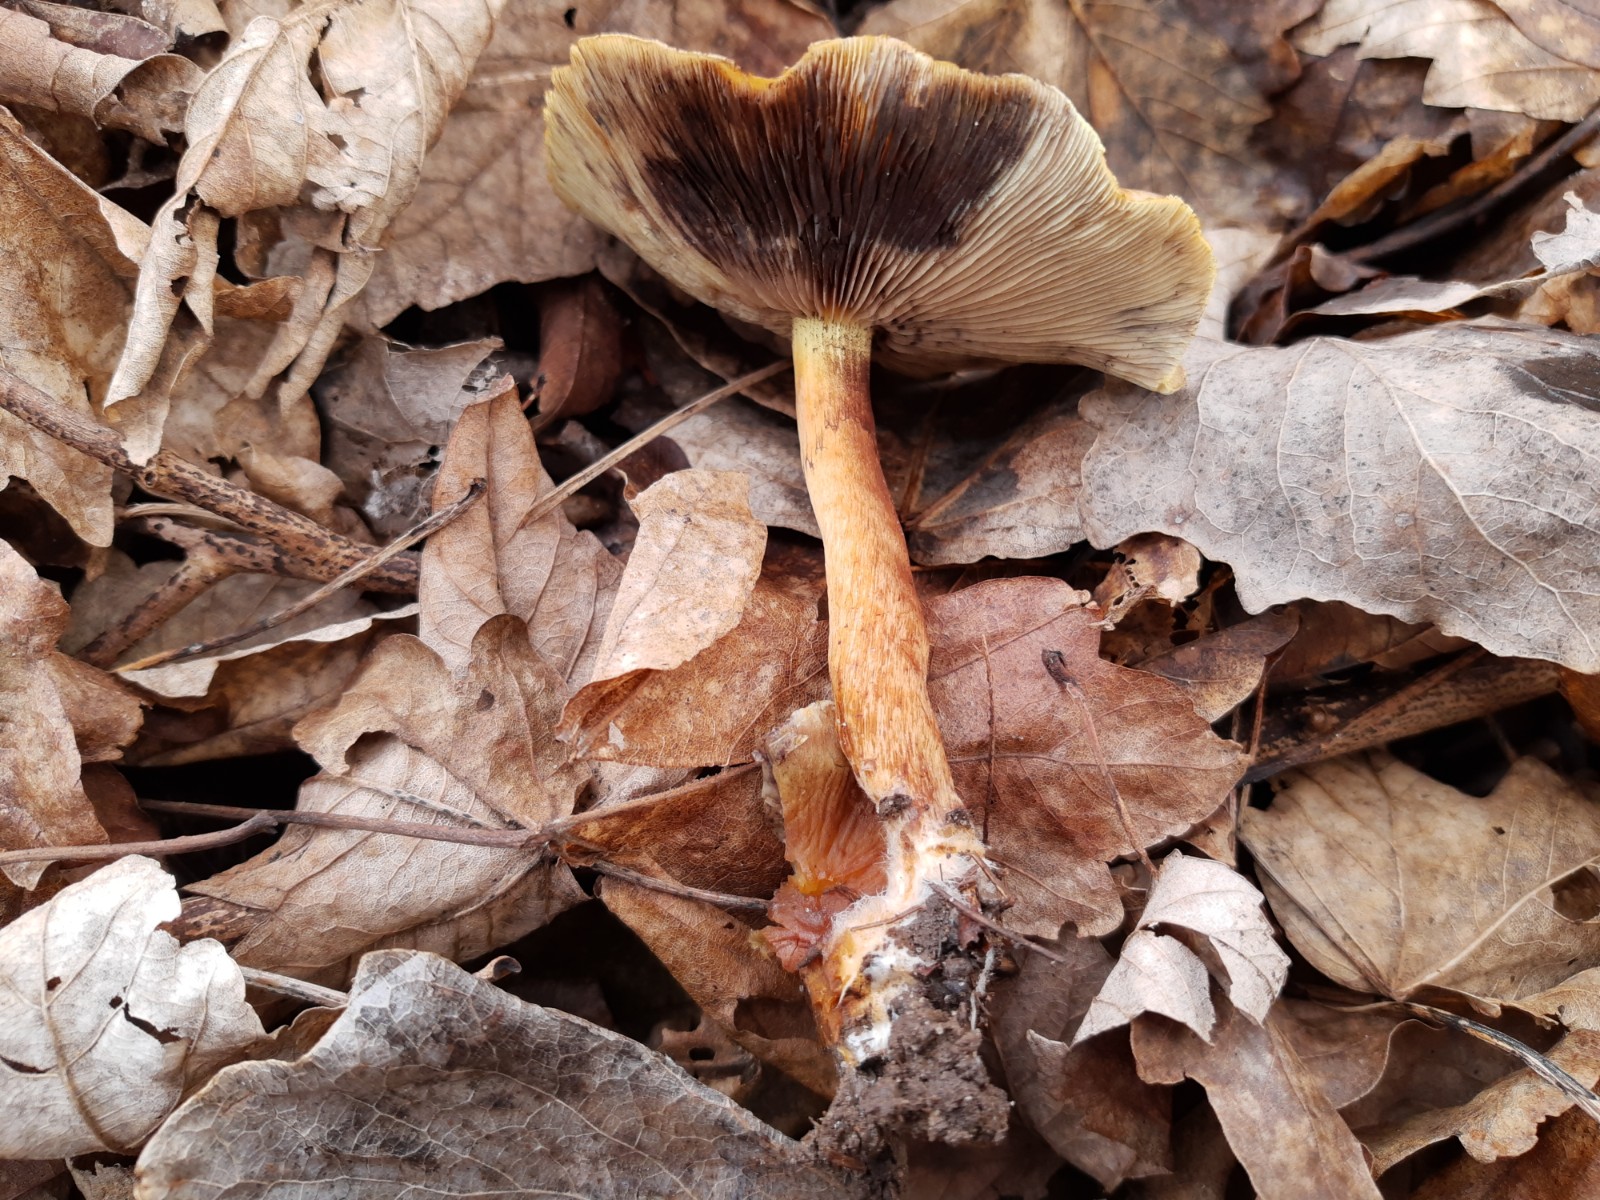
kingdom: Fungi
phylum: Basidiomycota
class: Agaricomycetes
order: Agaricales
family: Strophariaceae
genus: Hypholoma
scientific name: Hypholoma fasciculare
